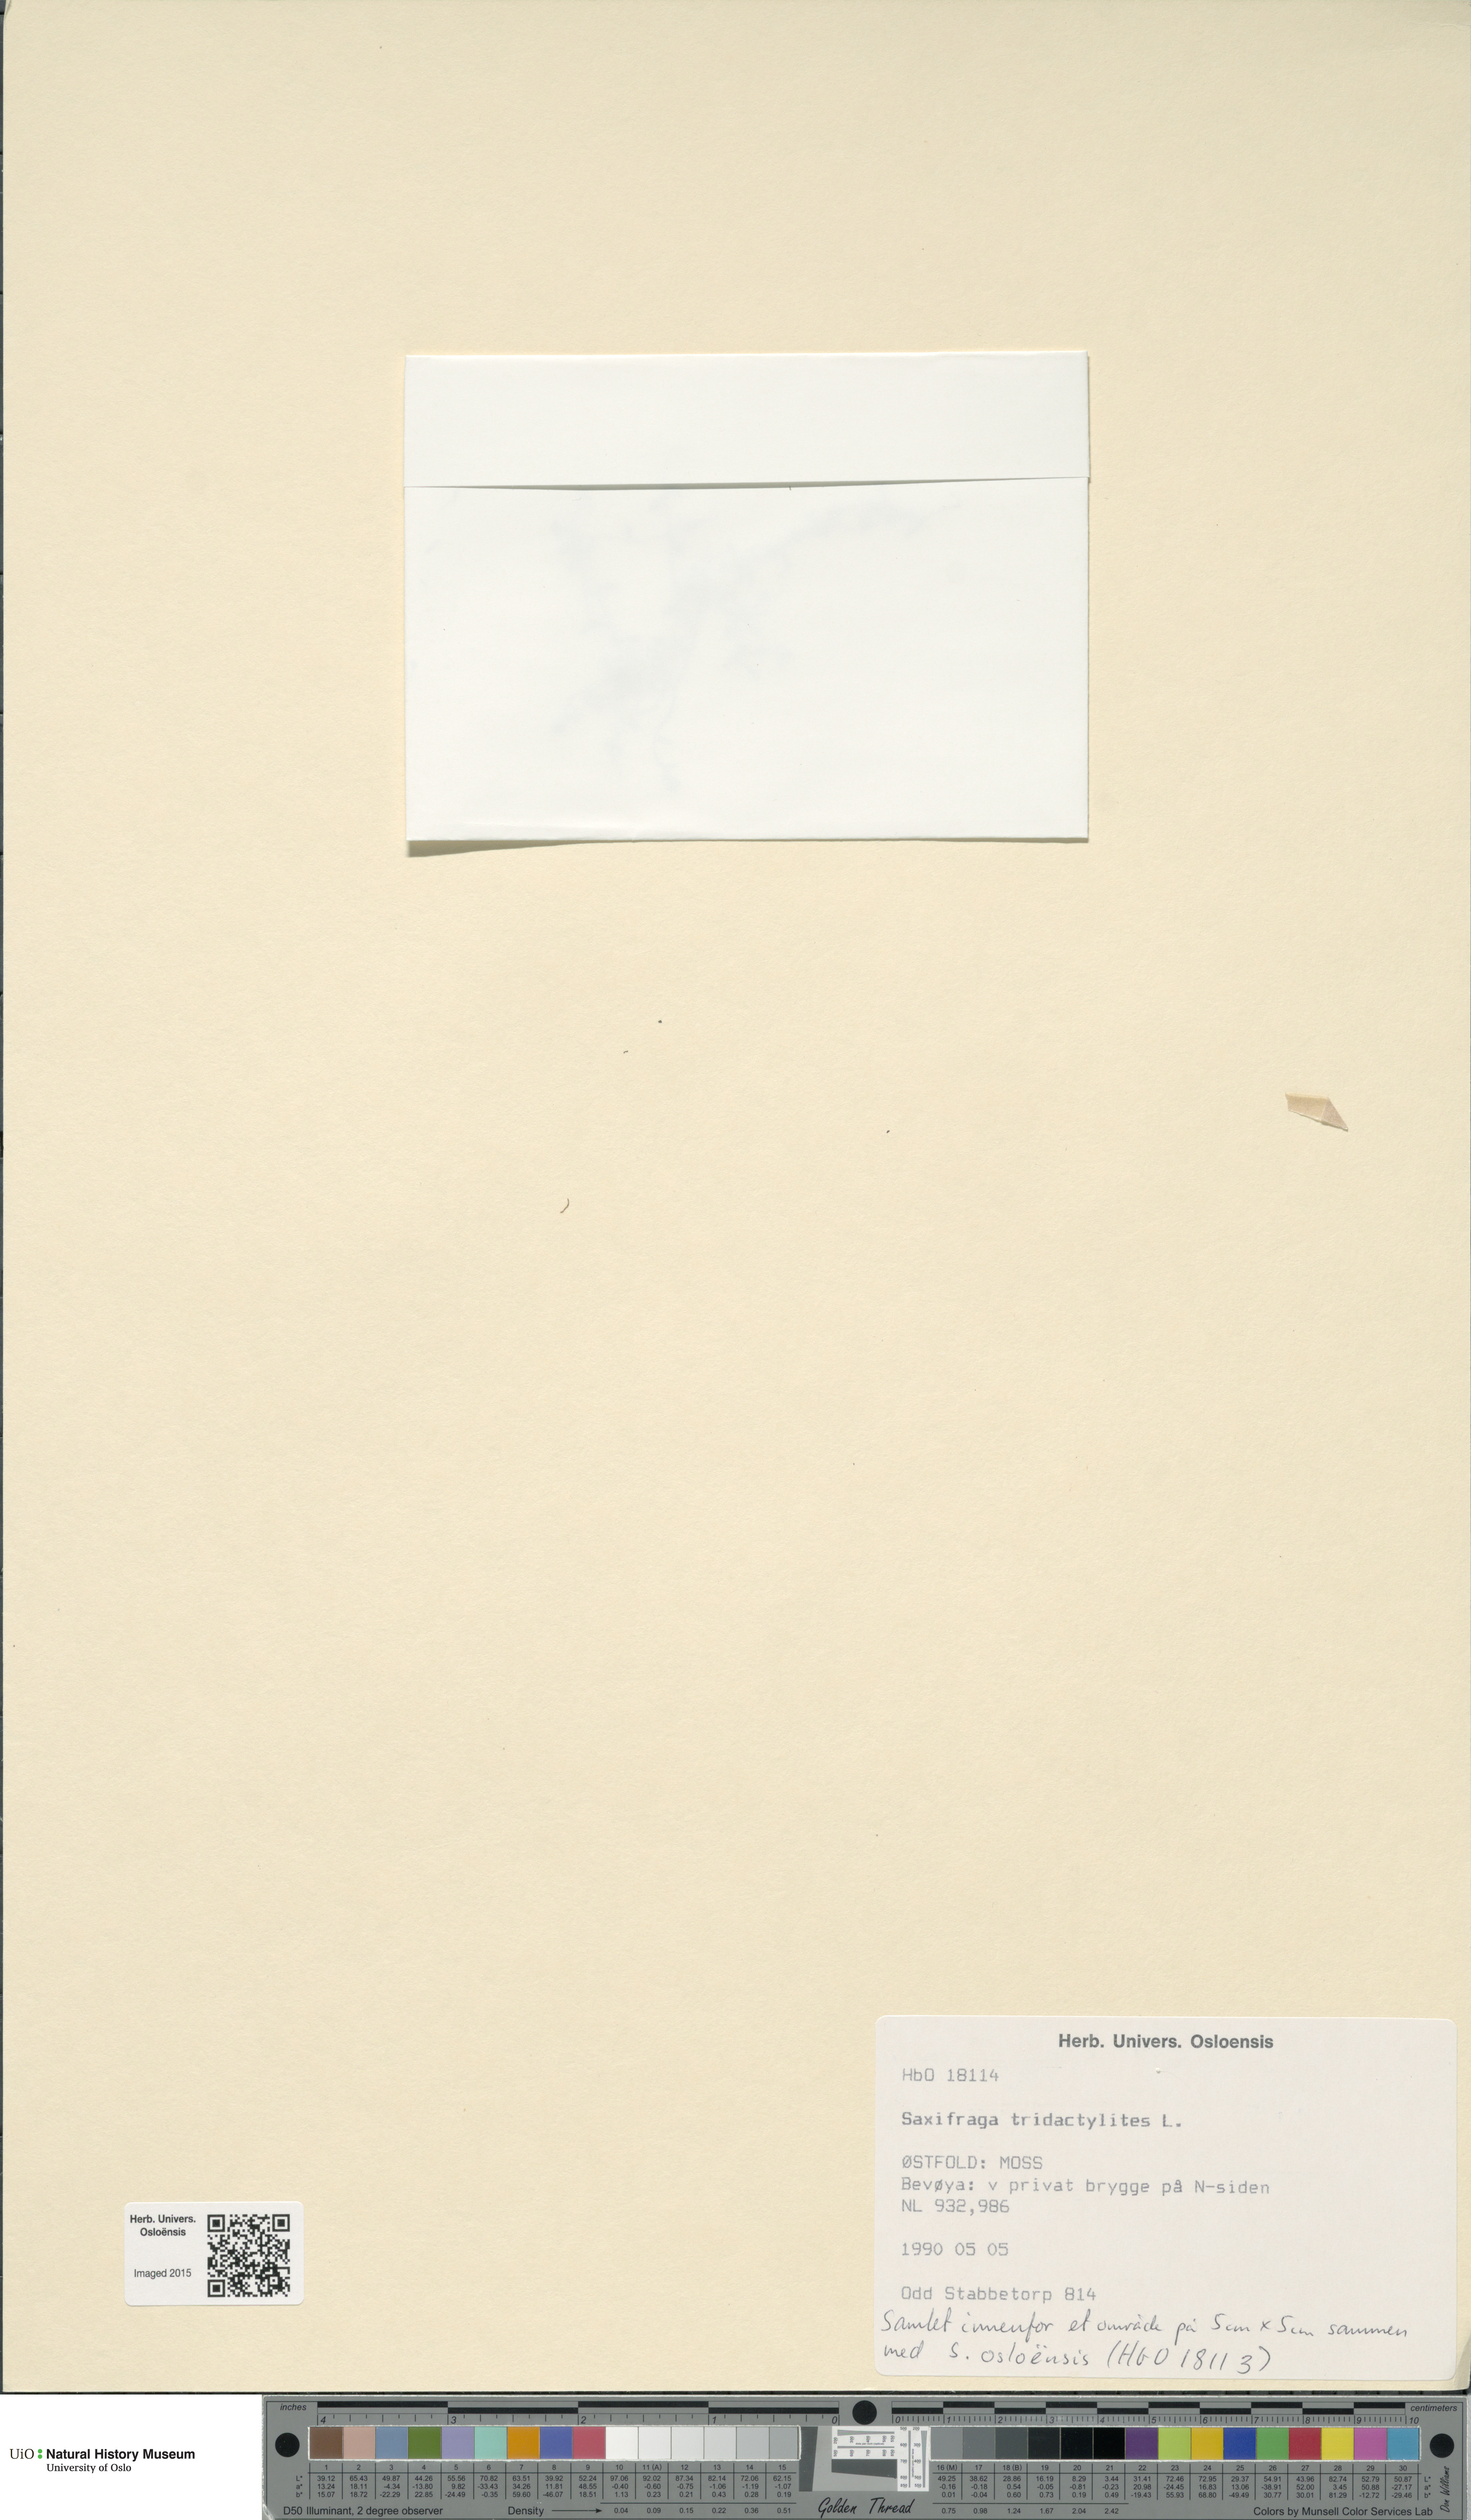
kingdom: Plantae
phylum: Tracheophyta
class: Magnoliopsida
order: Saxifragales
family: Saxifragaceae
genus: Saxifraga
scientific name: Saxifraga tridactylites
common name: Rue-leaved saxifrage
